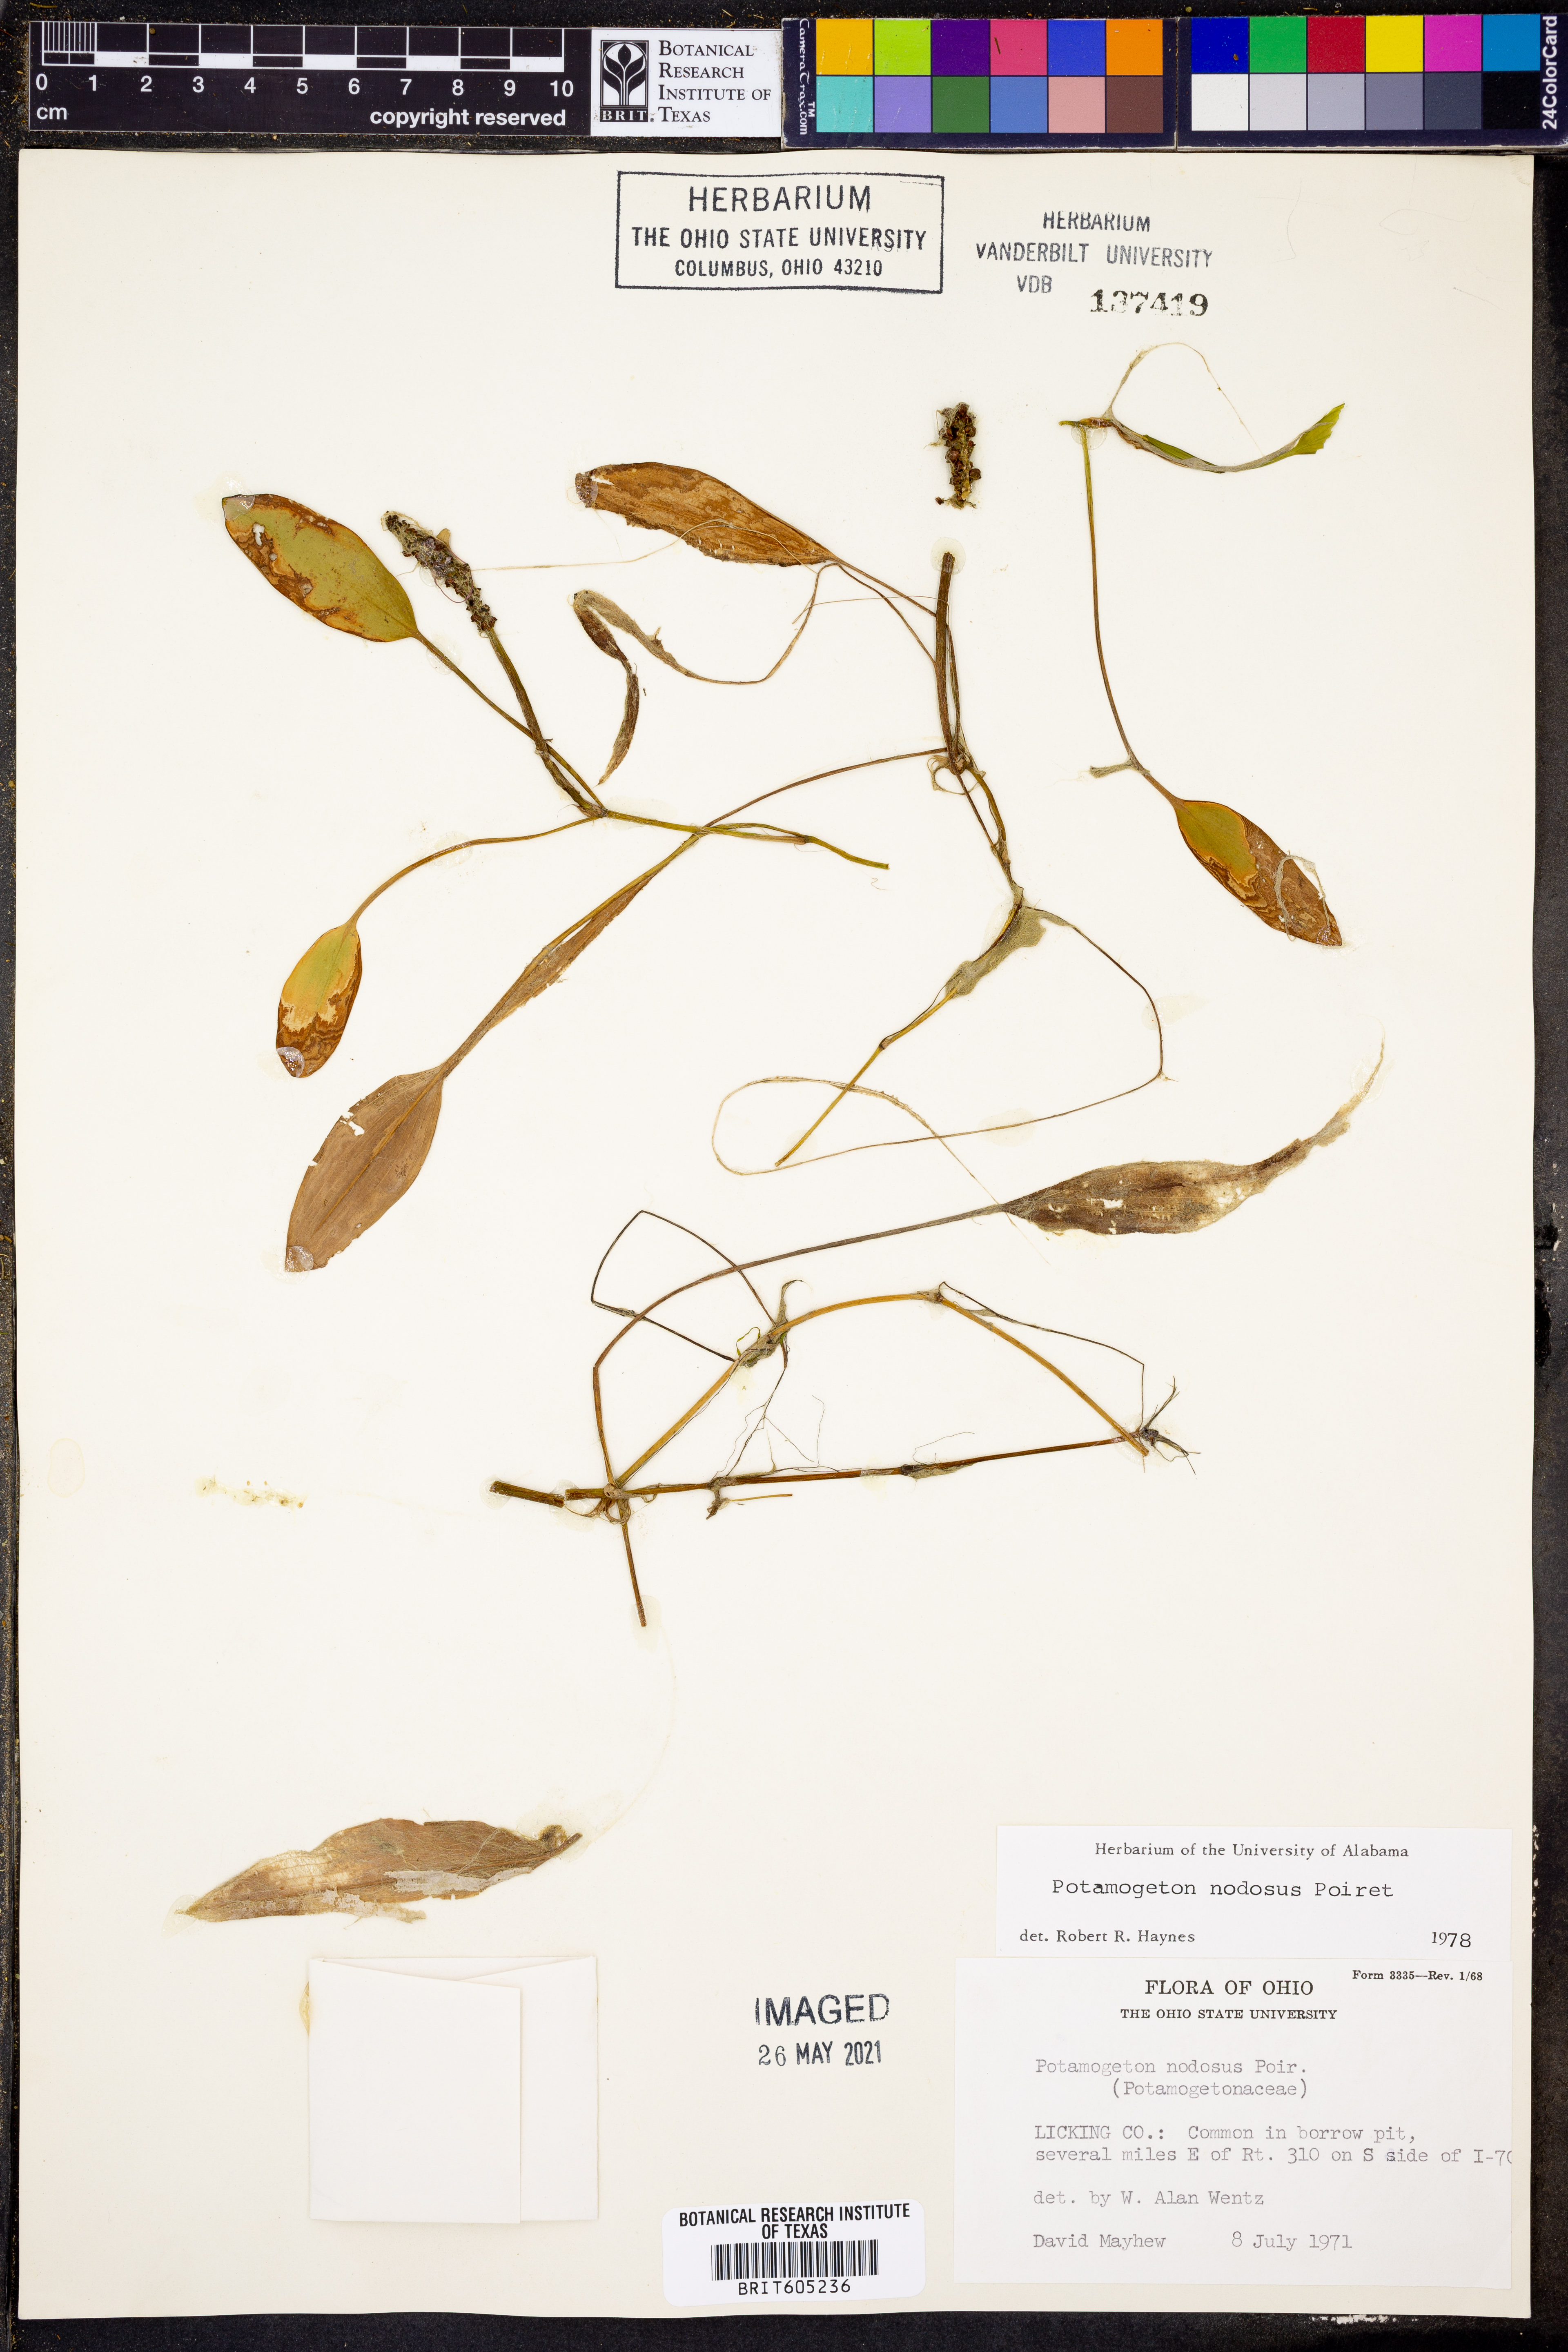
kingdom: Plantae
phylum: Tracheophyta
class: Liliopsida
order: Alismatales
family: Potamogetonaceae
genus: Potamogeton
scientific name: Potamogeton nodosus
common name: Loddon pondweed
